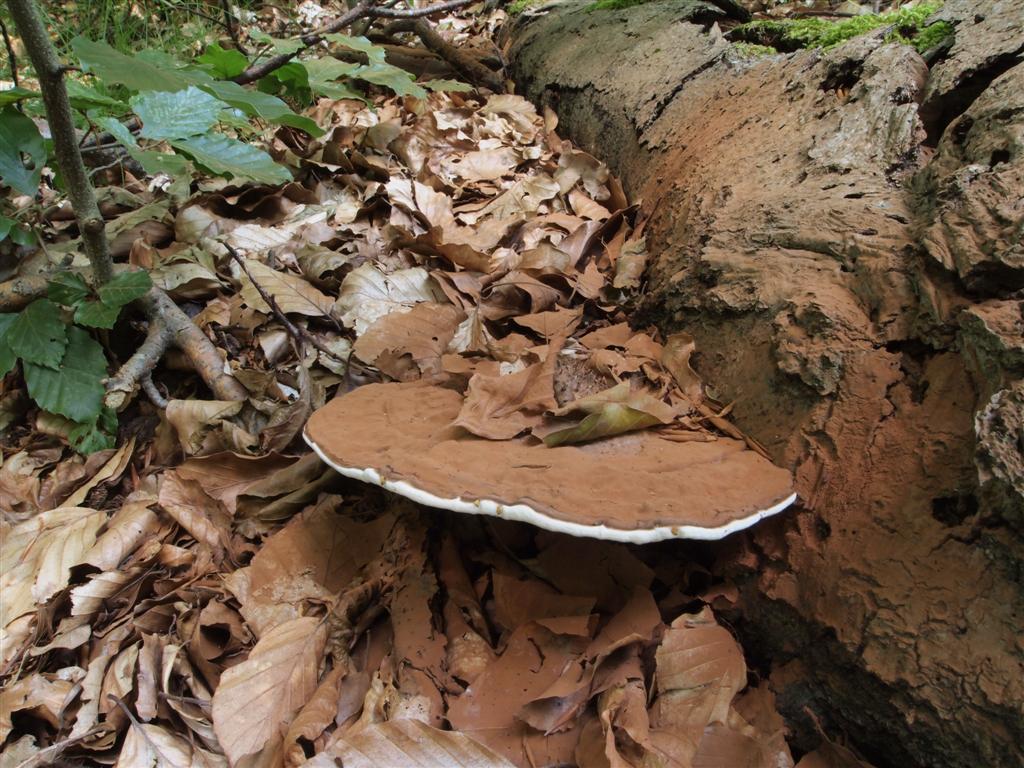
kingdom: Fungi
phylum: Basidiomycota
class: Agaricomycetes
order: Polyporales
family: Polyporaceae
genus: Ganoderma
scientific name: Ganoderma applanatum
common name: flad lakporesvamp
